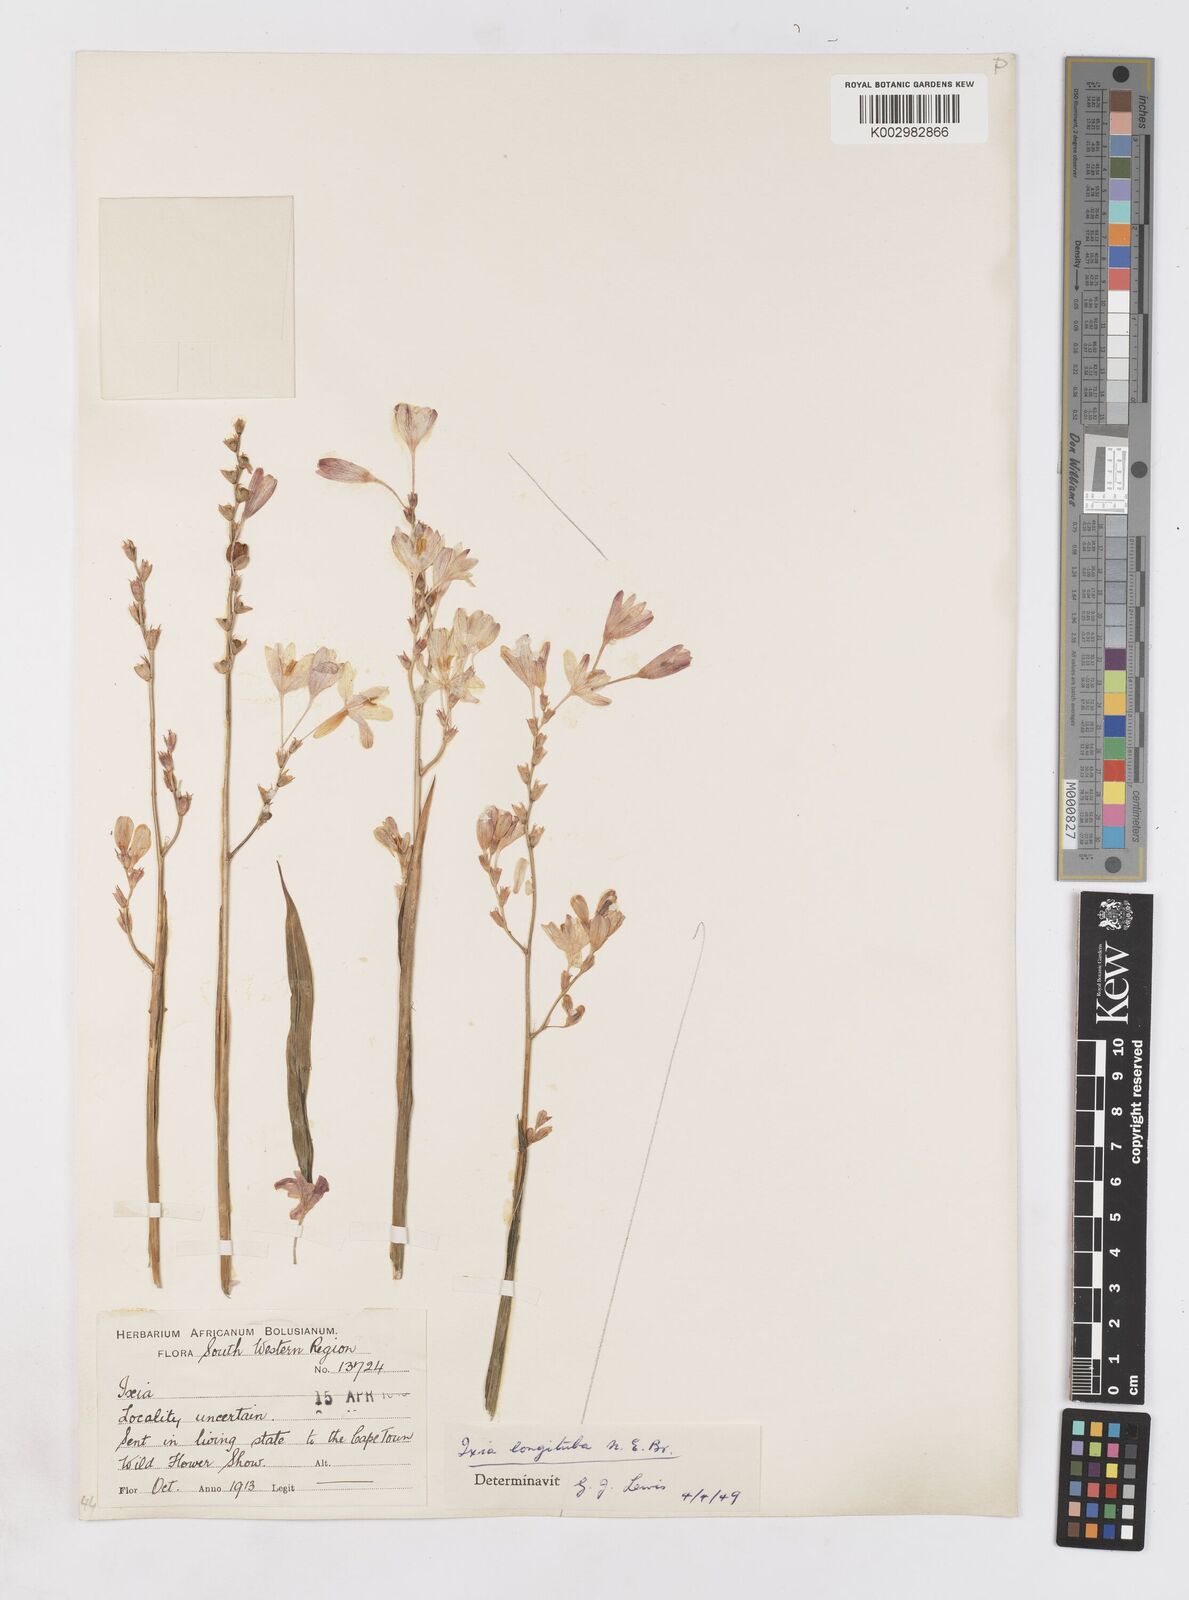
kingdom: Plantae
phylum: Tracheophyta
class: Liliopsida
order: Asparagales
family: Iridaceae
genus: Ixia
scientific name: Ixia longituba
